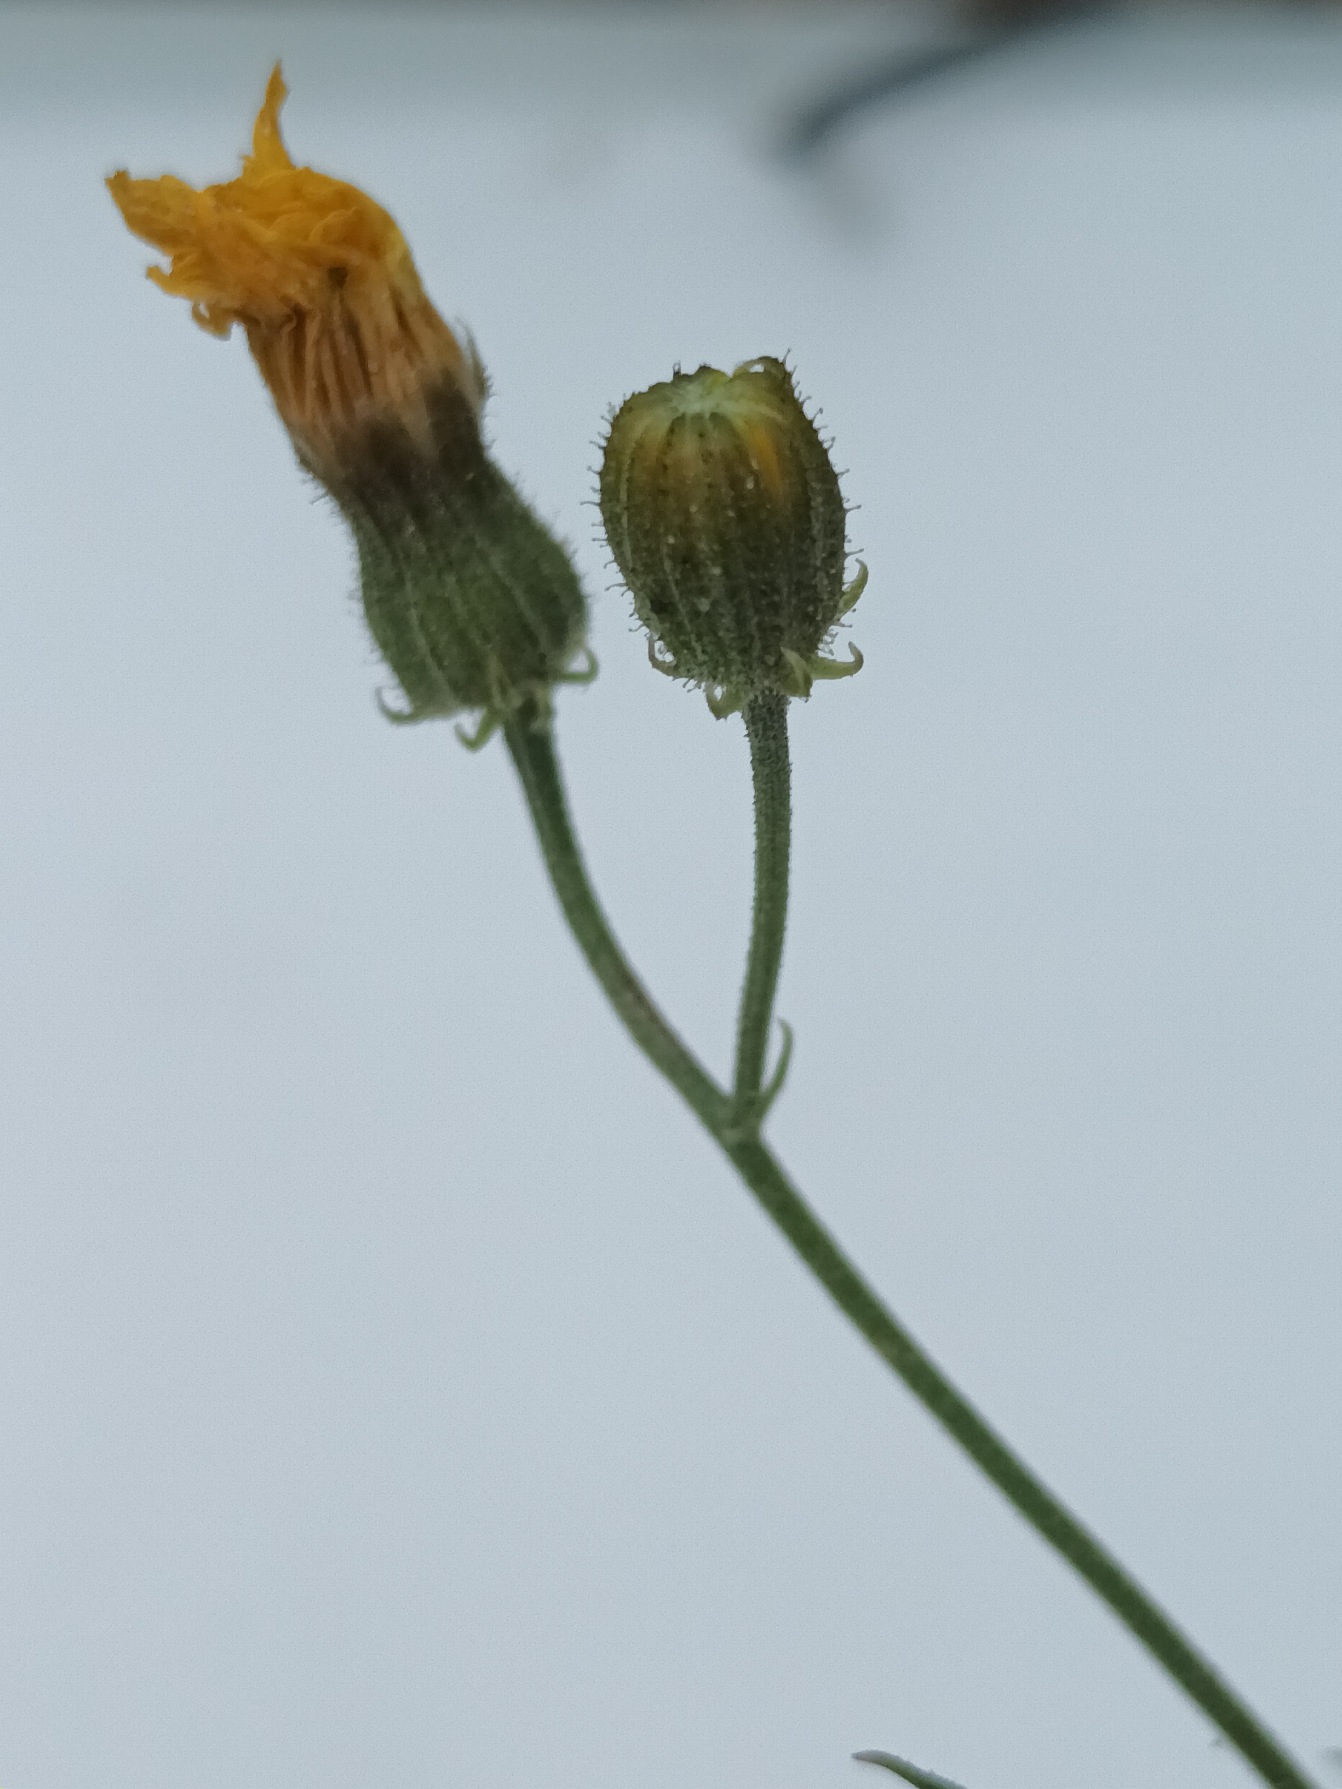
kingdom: Plantae
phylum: Tracheophyta
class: Magnoliopsida
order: Asterales
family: Asteraceae
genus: Crepis
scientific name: Crepis tectorum
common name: Tag-høgeskæg
